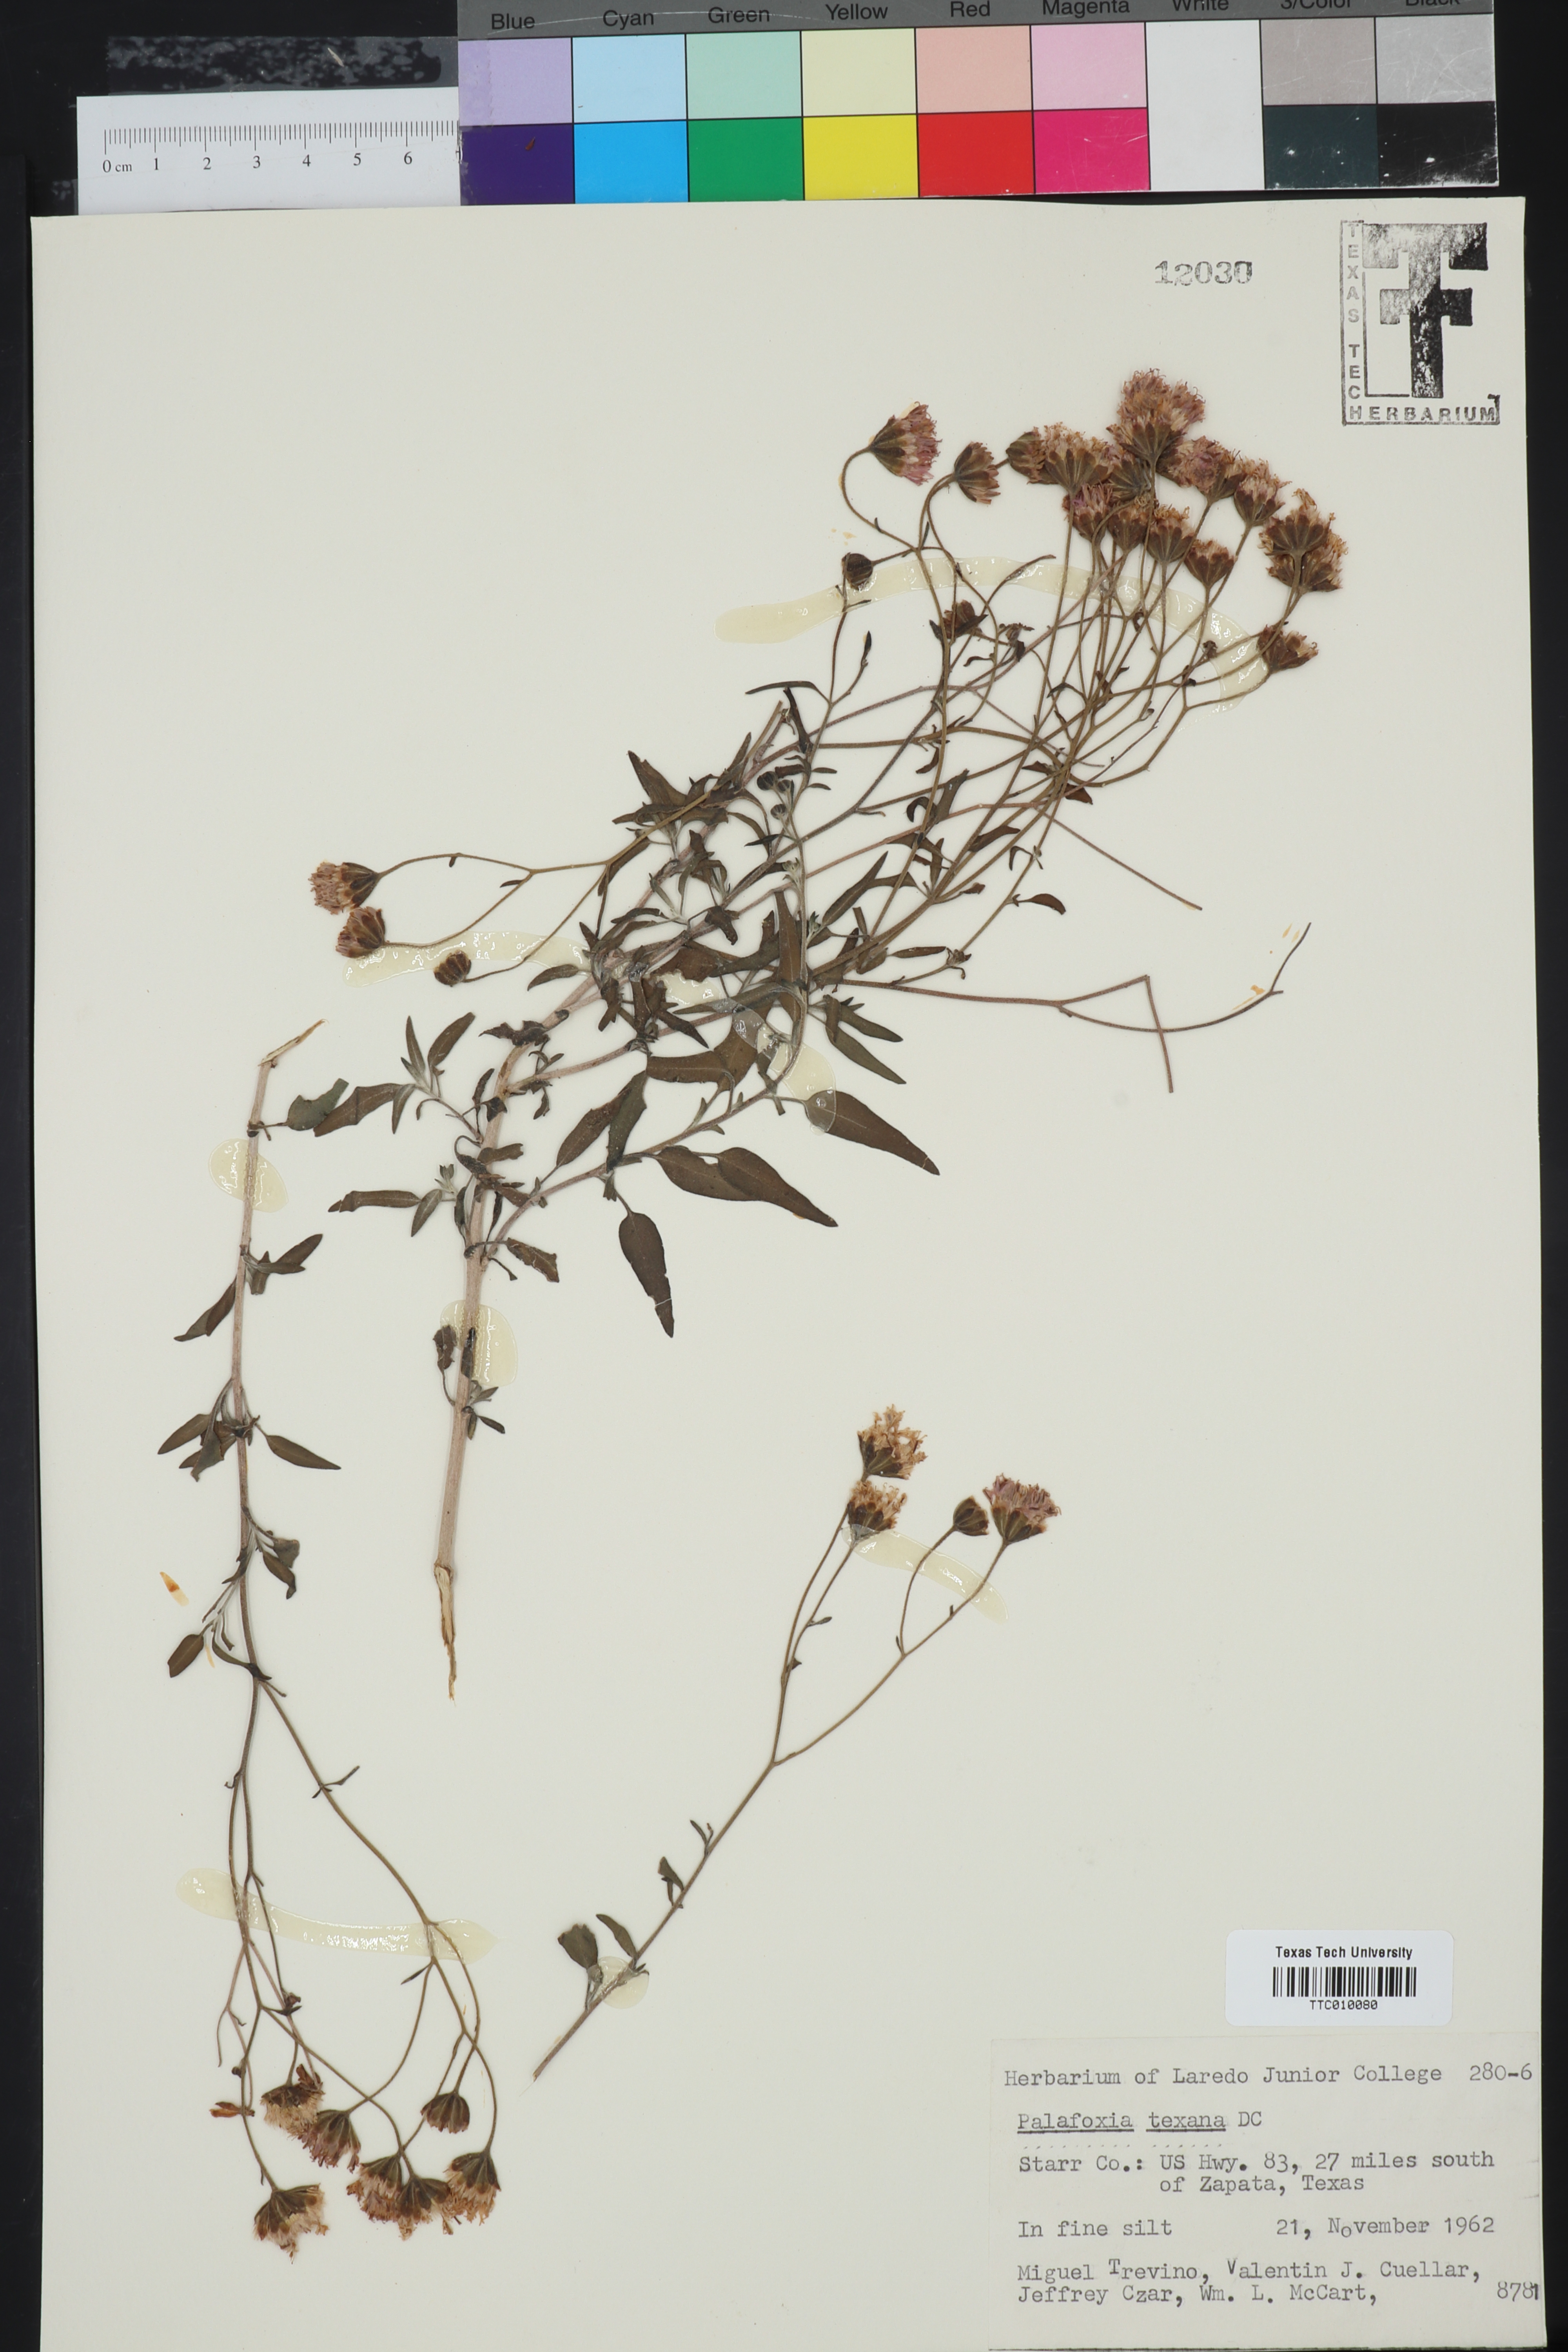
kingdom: Plantae
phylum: Tracheophyta
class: Magnoliopsida
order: Asterales
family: Asteraceae
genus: Palafoxia
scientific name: Palafoxia texana
